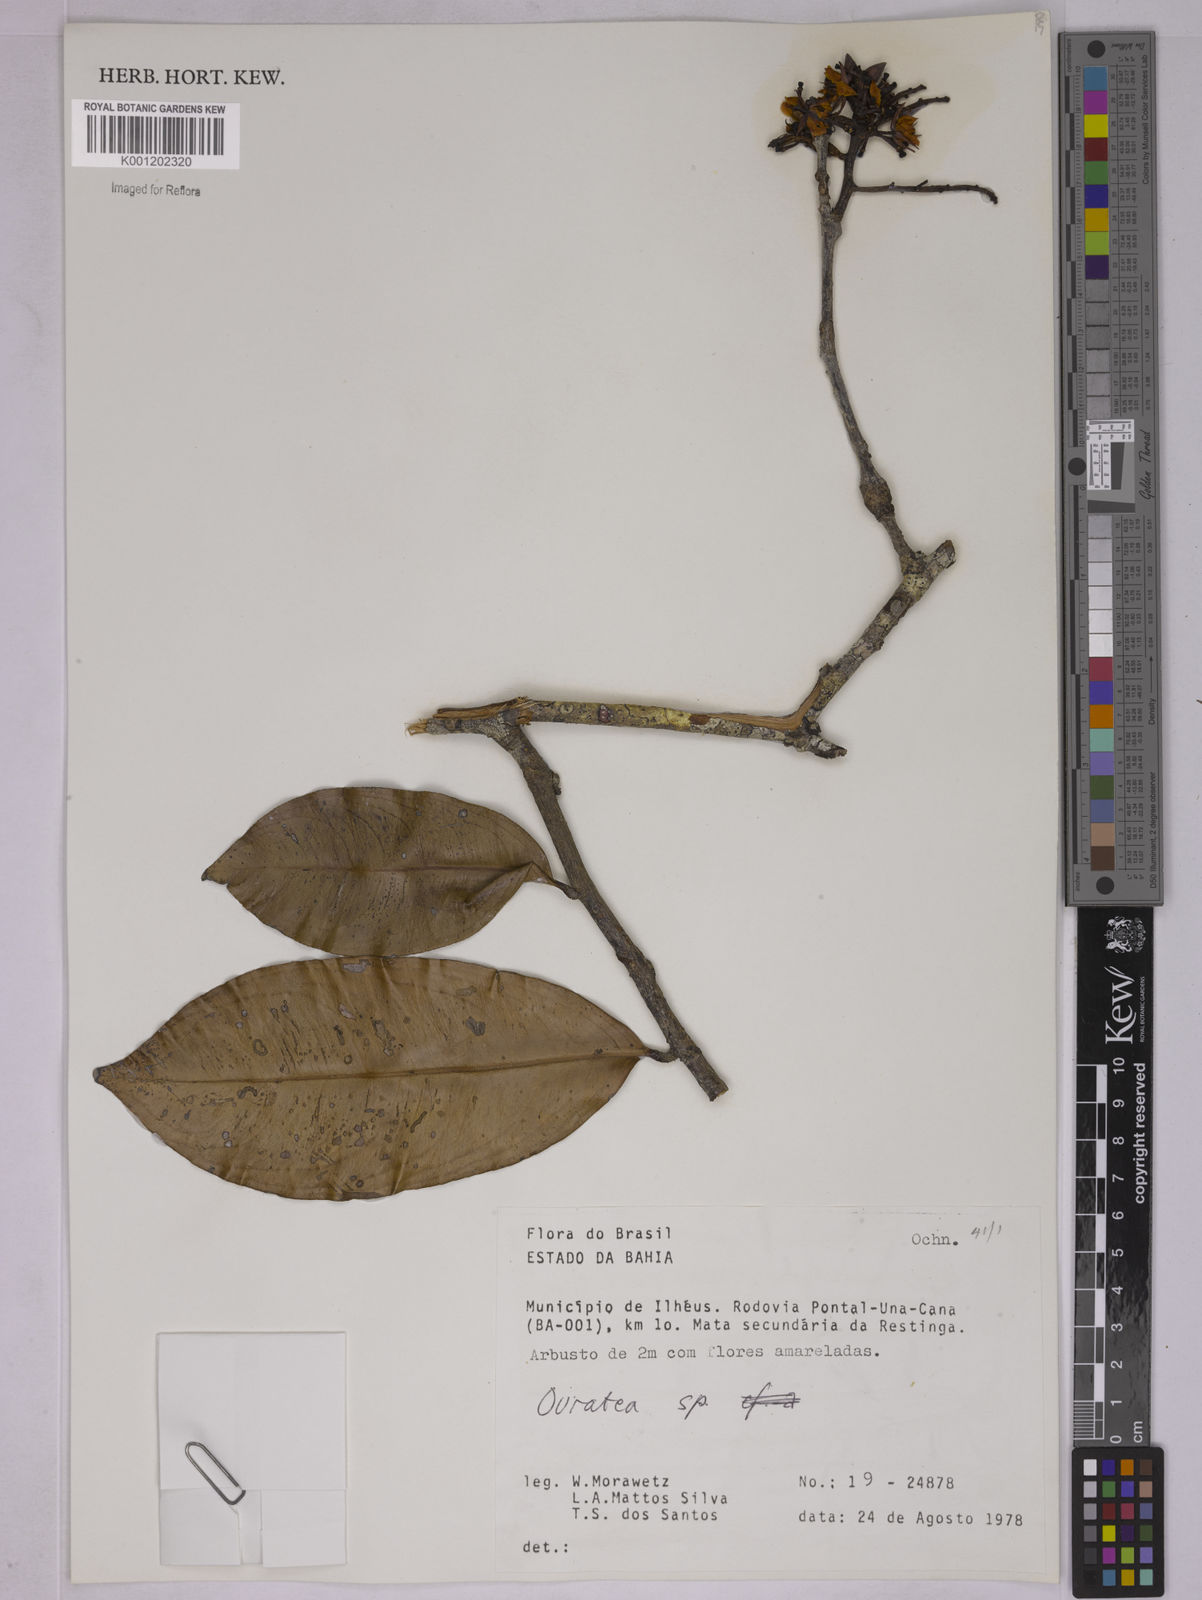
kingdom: Plantae
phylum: Tracheophyta
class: Magnoliopsida
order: Malpighiales
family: Ochnaceae
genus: Ouratea
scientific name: Ouratea
